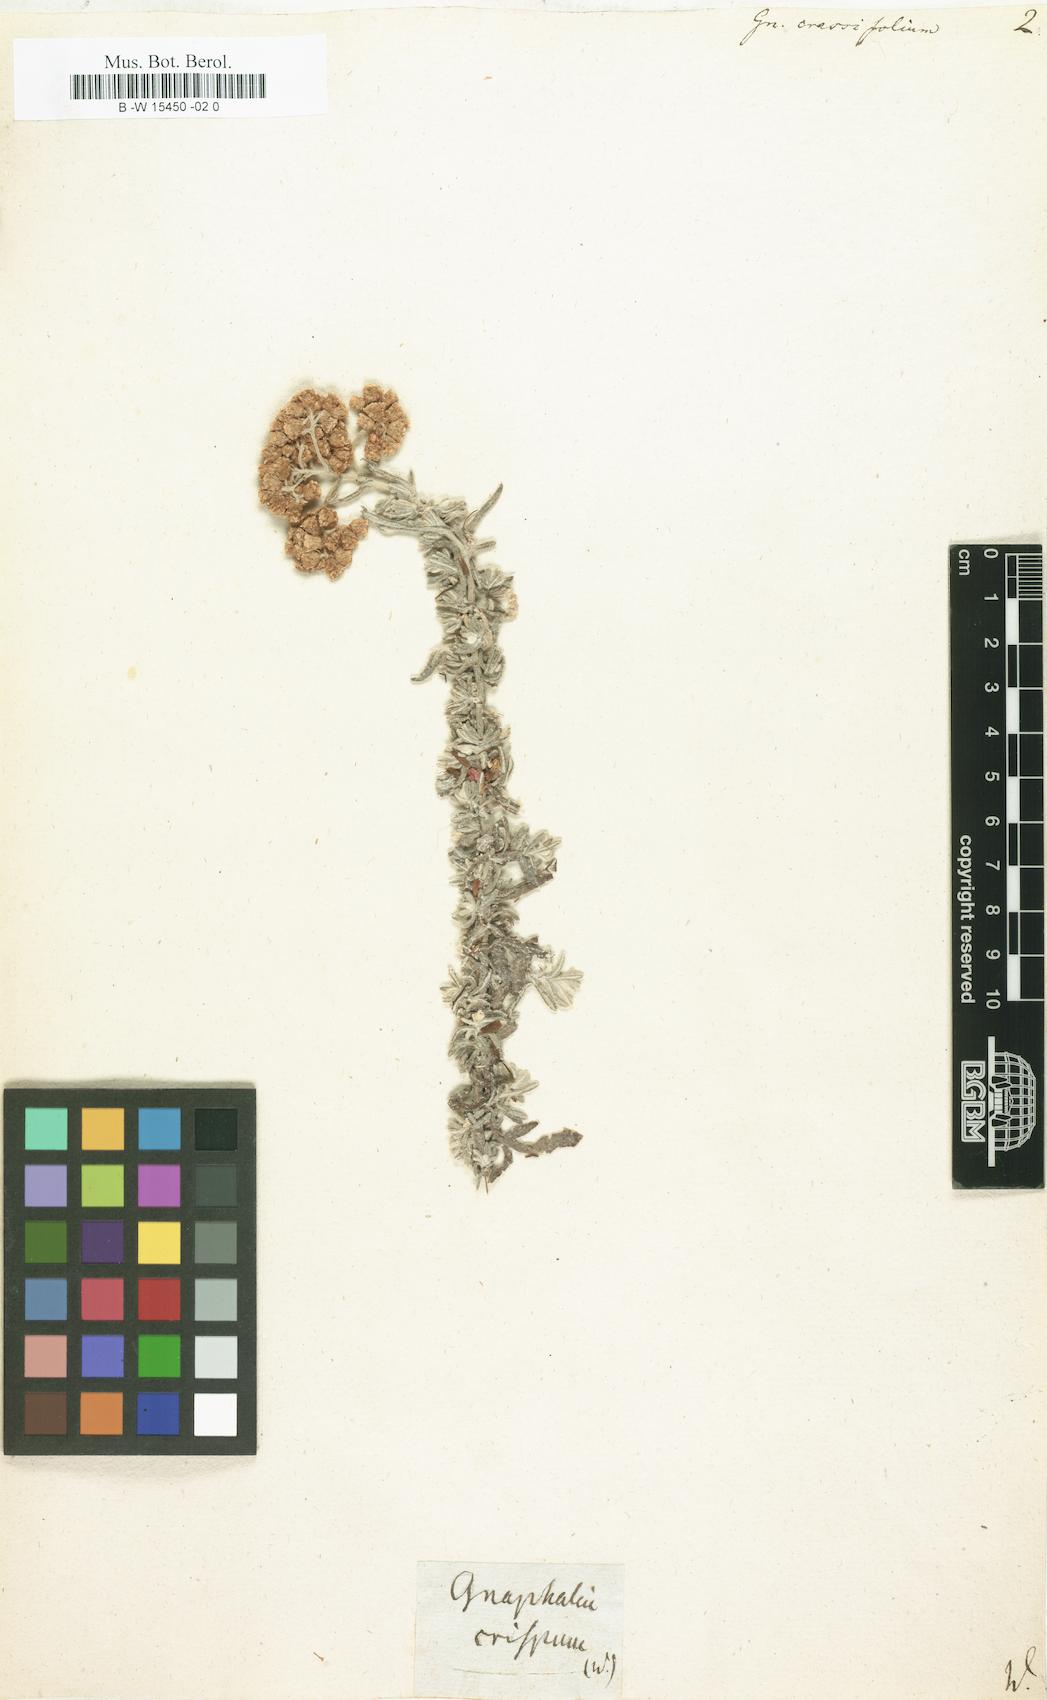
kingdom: Plantae
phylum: Tracheophyta
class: Magnoliopsida
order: Asterales
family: Asteraceae
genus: Helichrysum
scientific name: Helichrysum
